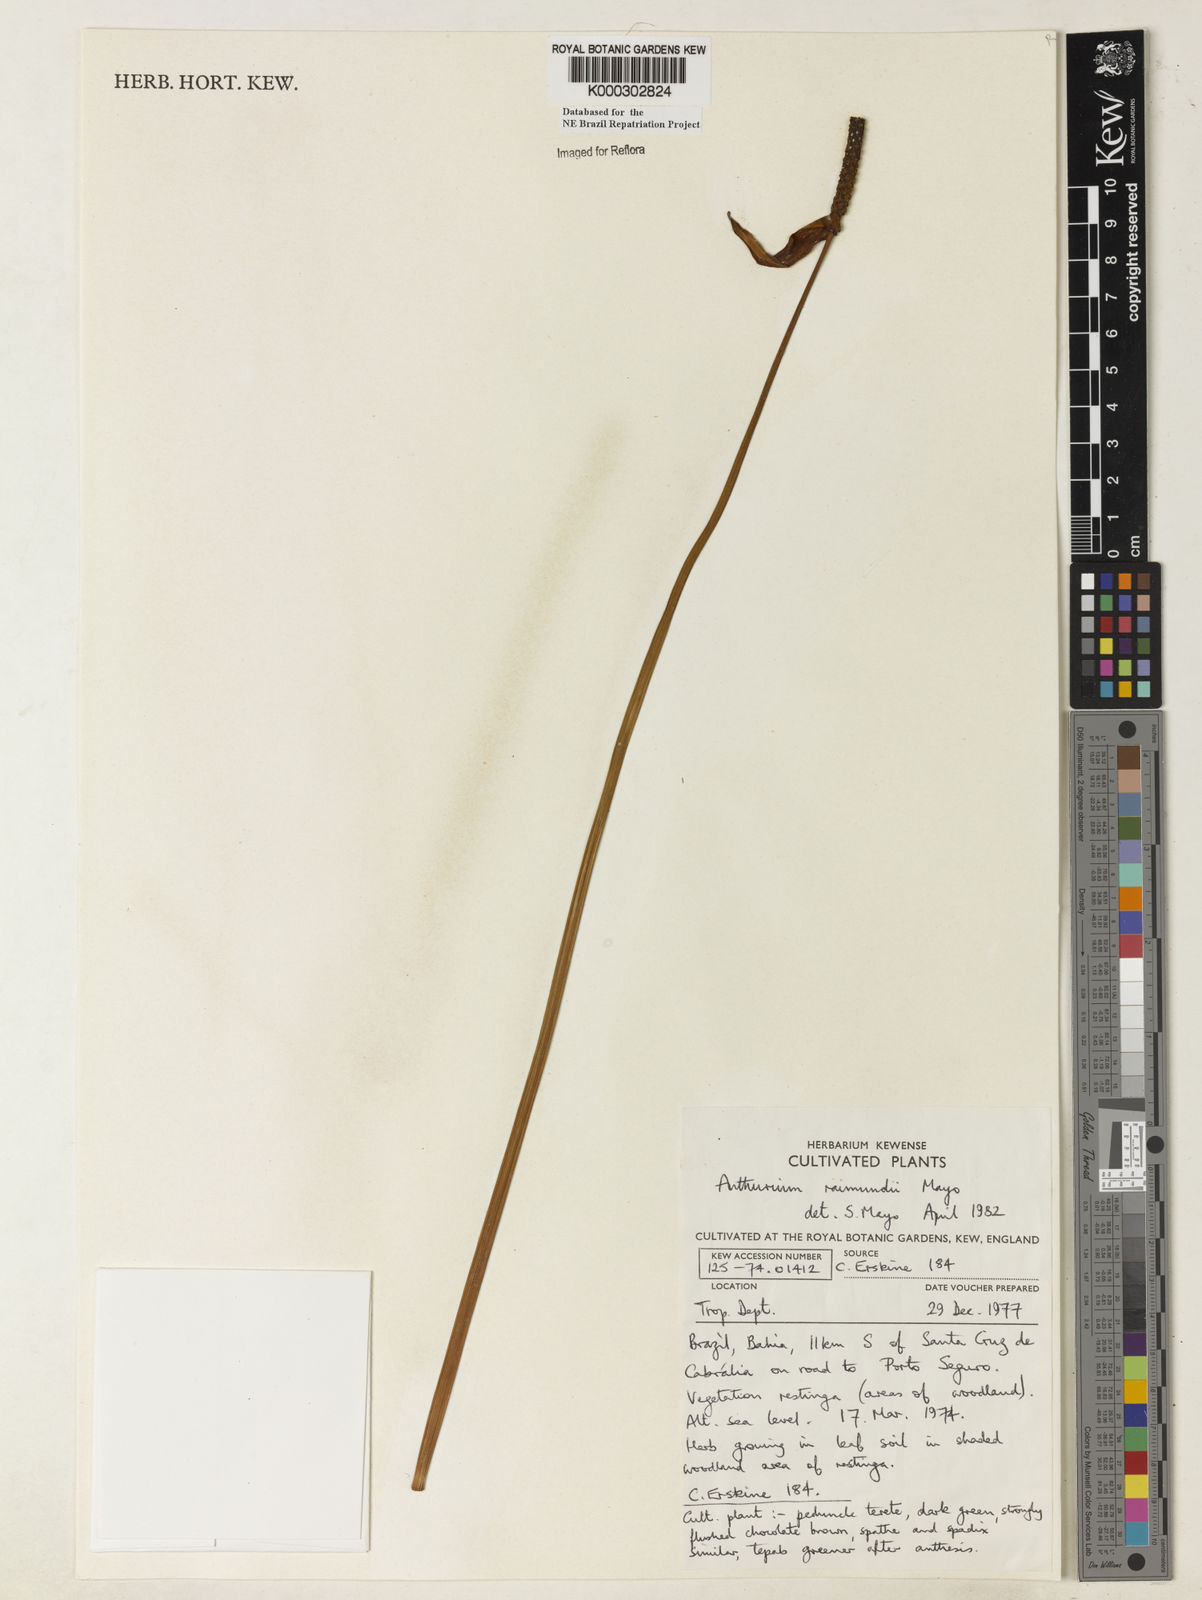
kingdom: Plantae
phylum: Tracheophyta
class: Liliopsida
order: Alismatales
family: Araceae
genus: Anthurium
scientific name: Anthurium raimundii
